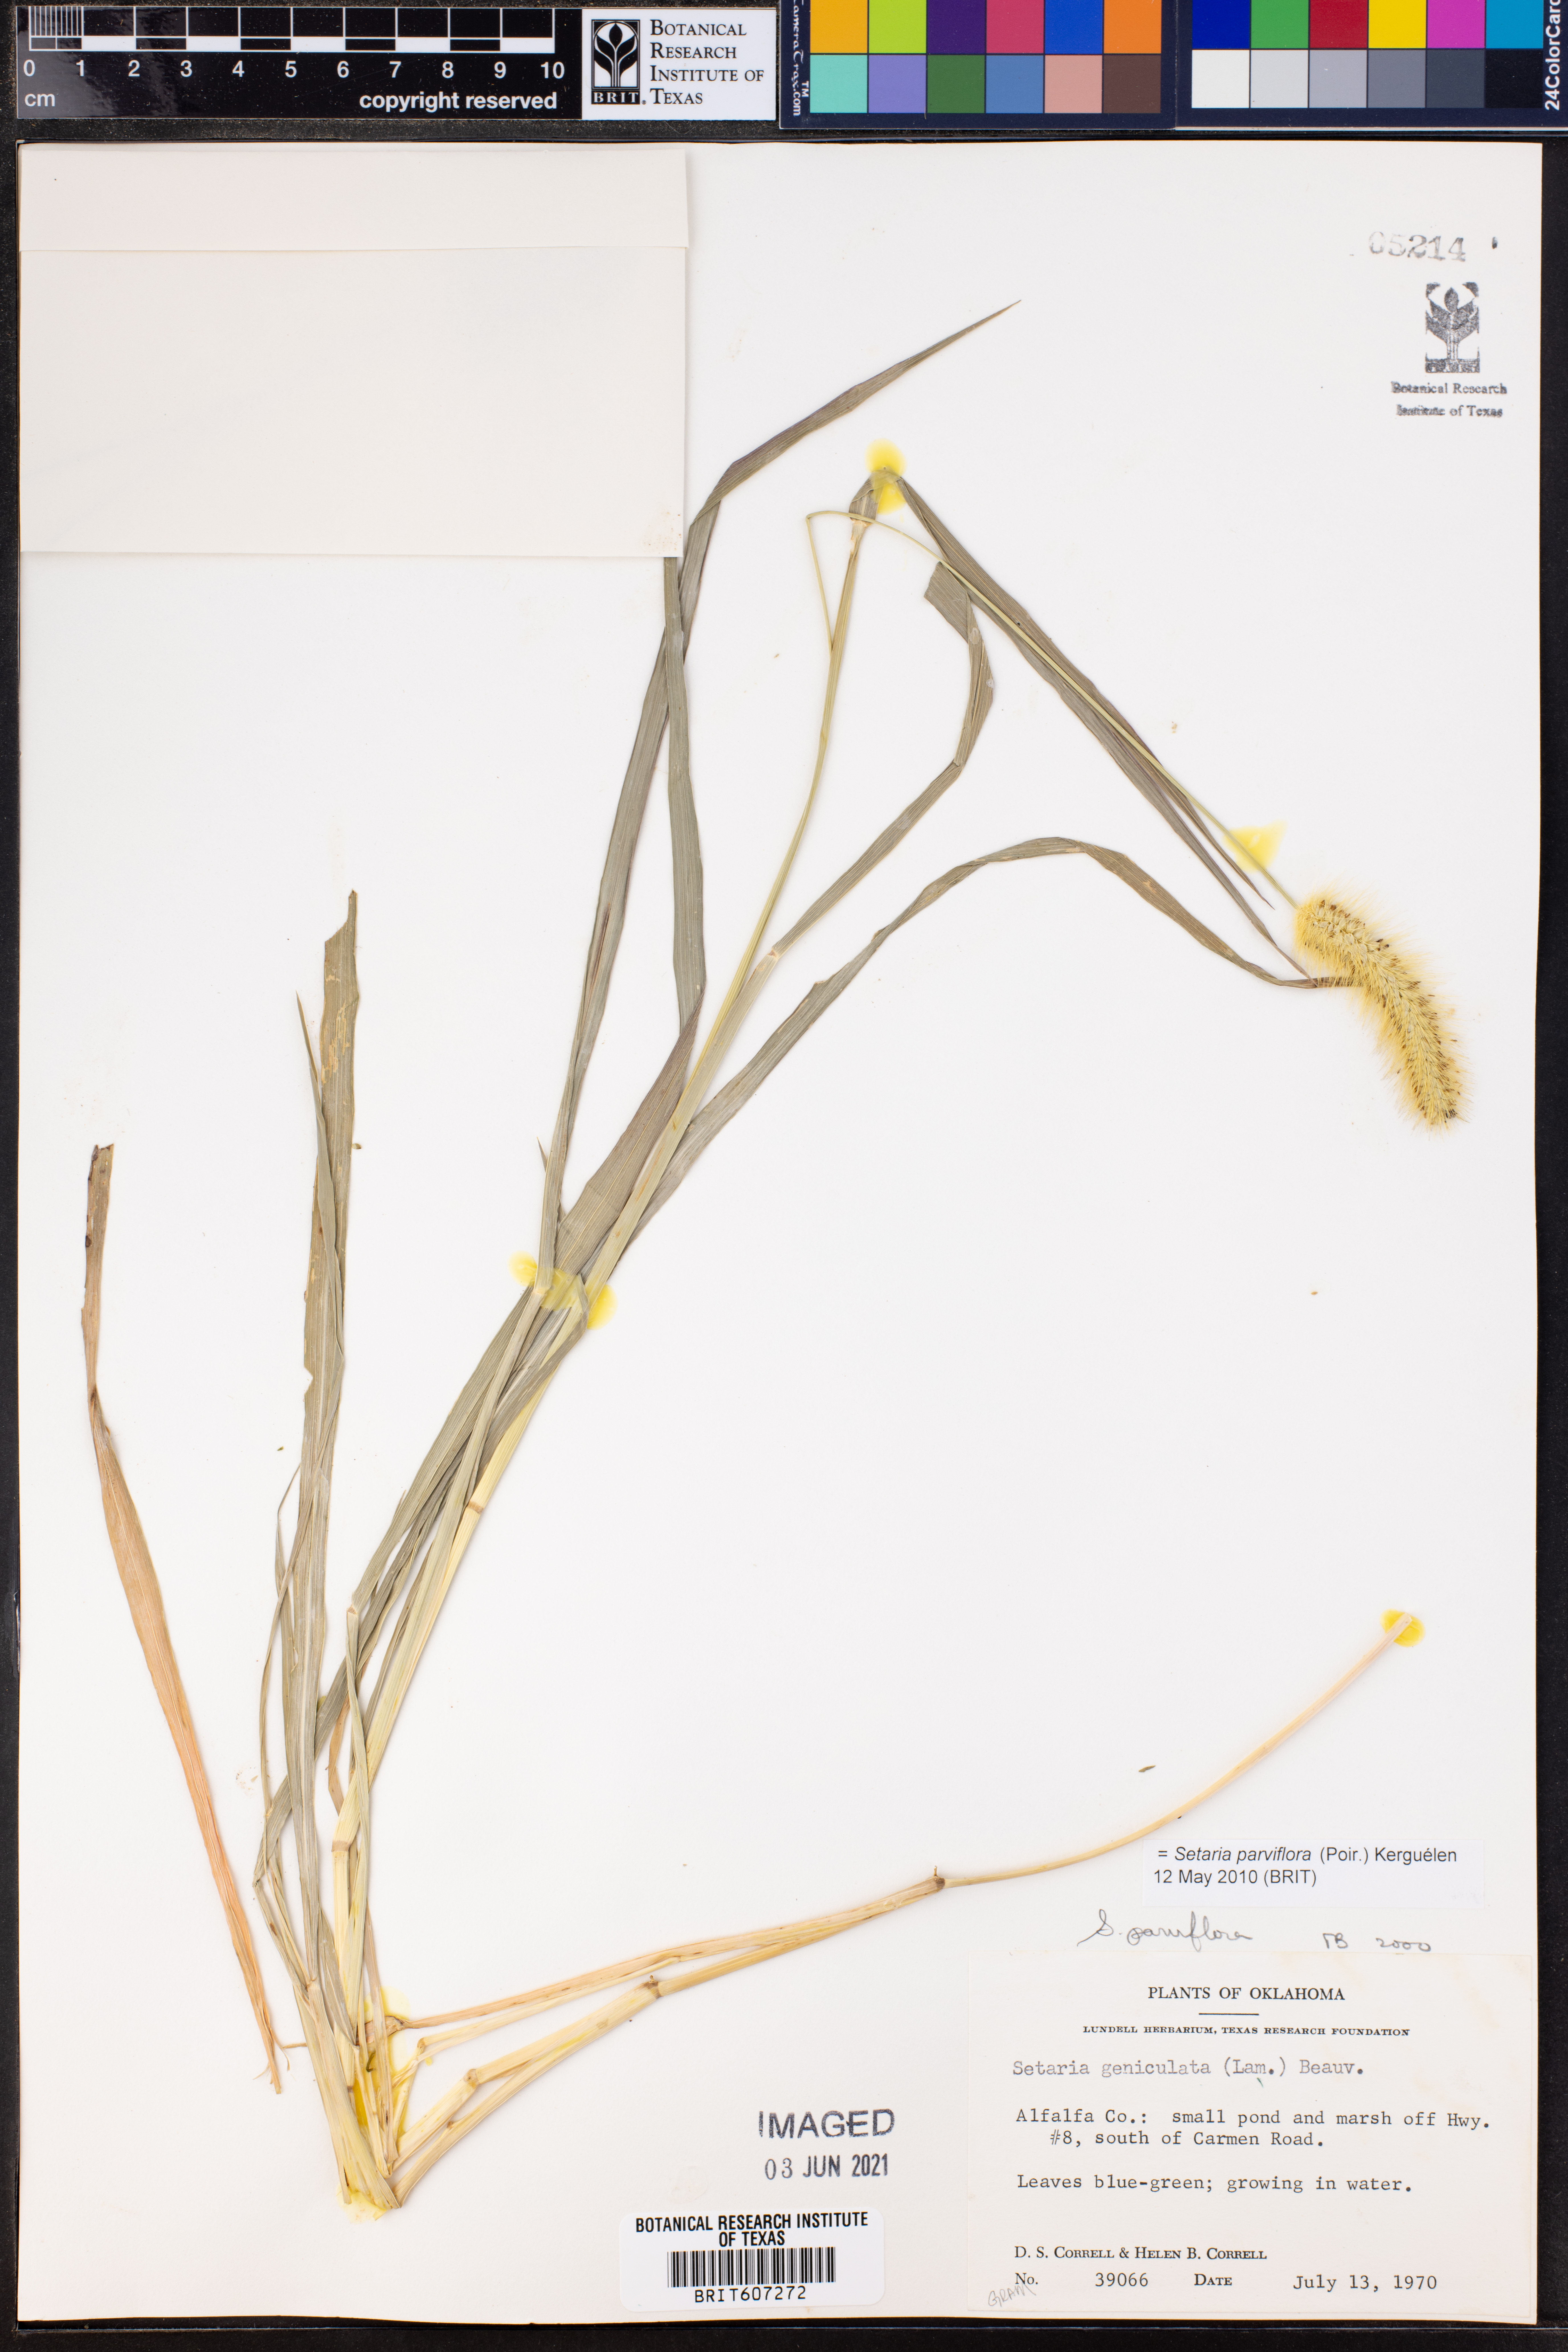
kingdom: Plantae
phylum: Tracheophyta
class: Liliopsida
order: Poales
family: Poaceae
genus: Setaria
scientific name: Setaria parviflora
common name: Knotroot bristle-grass
